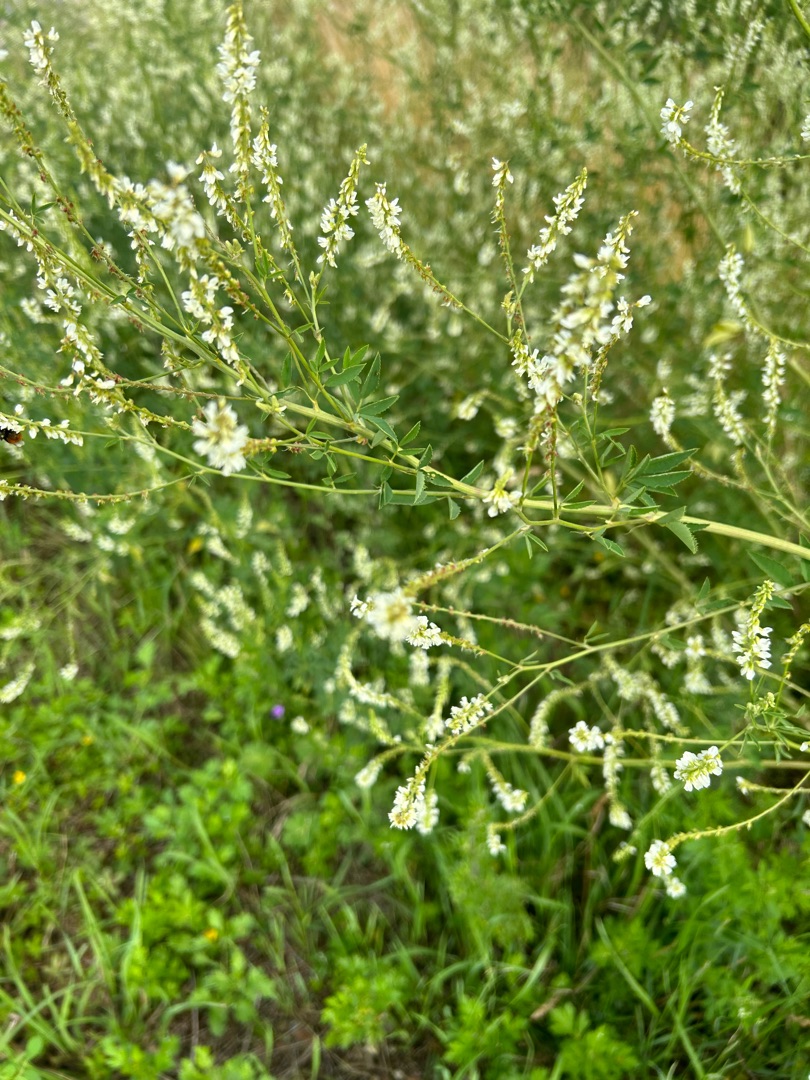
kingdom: Plantae
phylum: Tracheophyta
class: Magnoliopsida
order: Fabales
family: Fabaceae
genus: Melilotus
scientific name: Melilotus albus
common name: Hvid stenkløver
